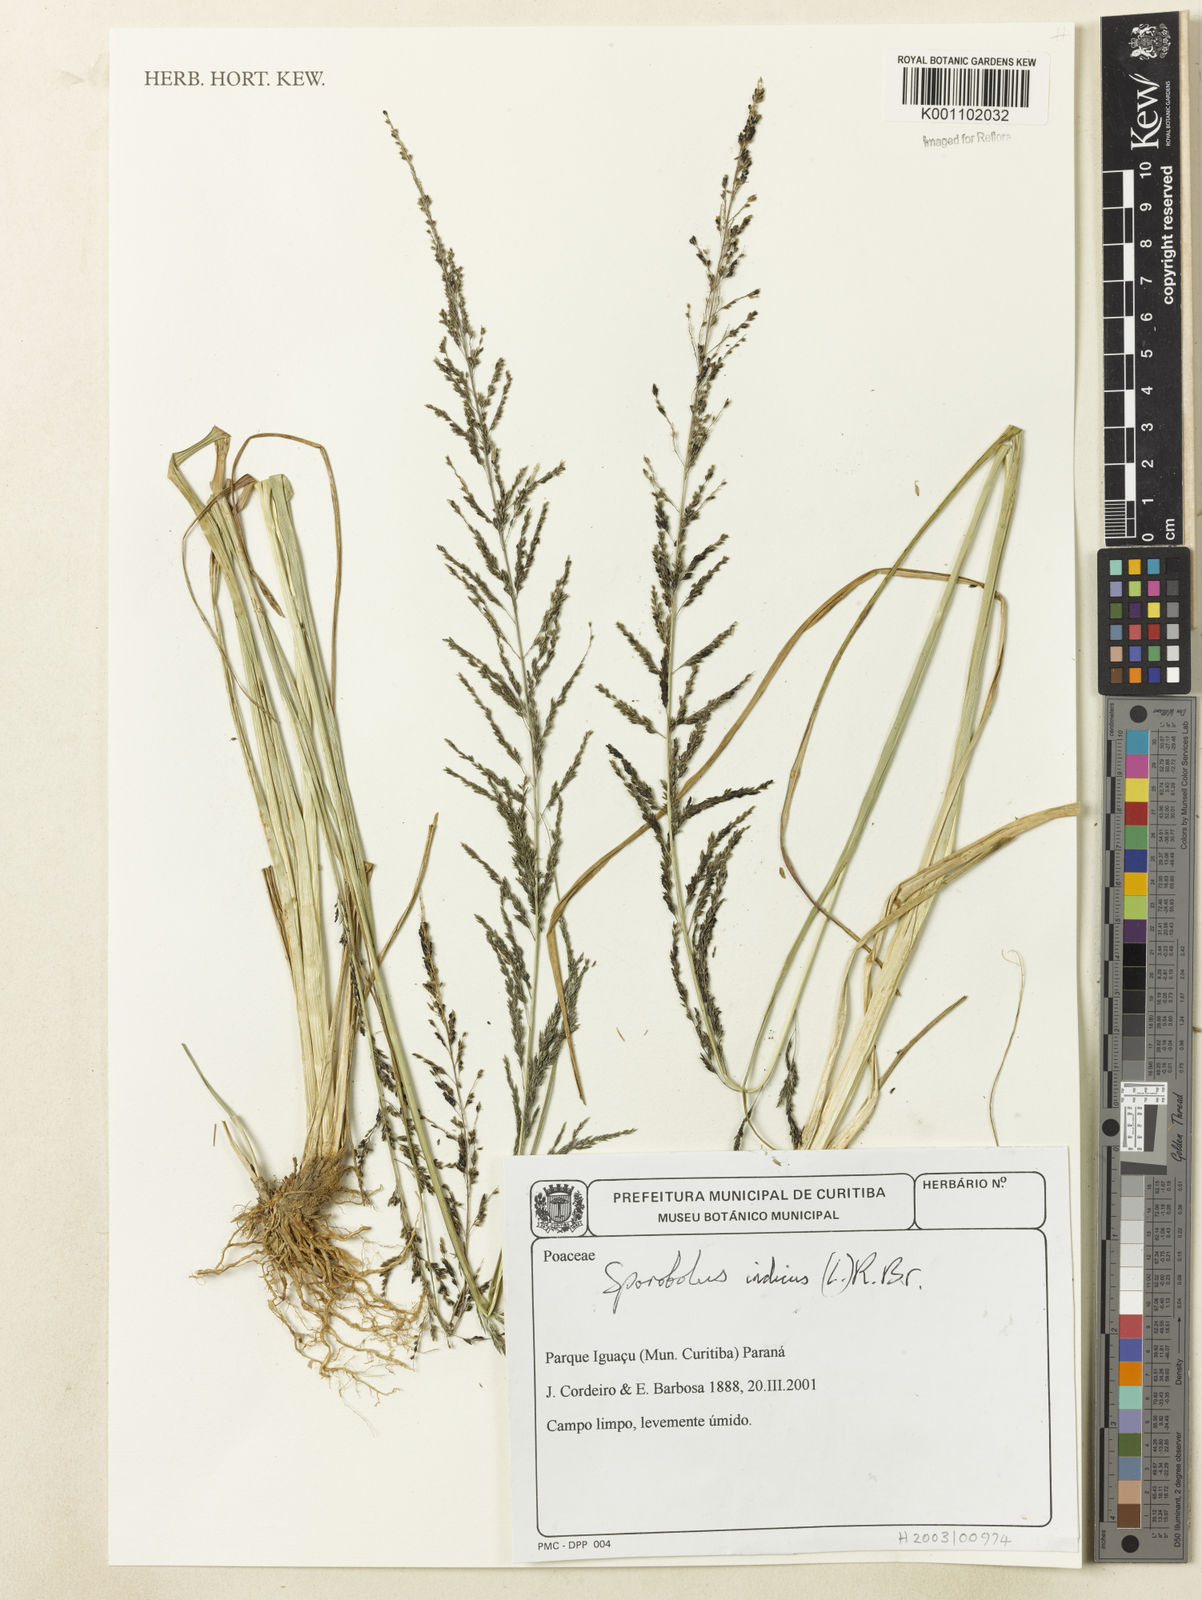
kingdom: Plantae
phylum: Tracheophyta
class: Liliopsida
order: Poales
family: Poaceae
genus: Sporobolus
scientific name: Sporobolus indicus
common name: Smut grass
